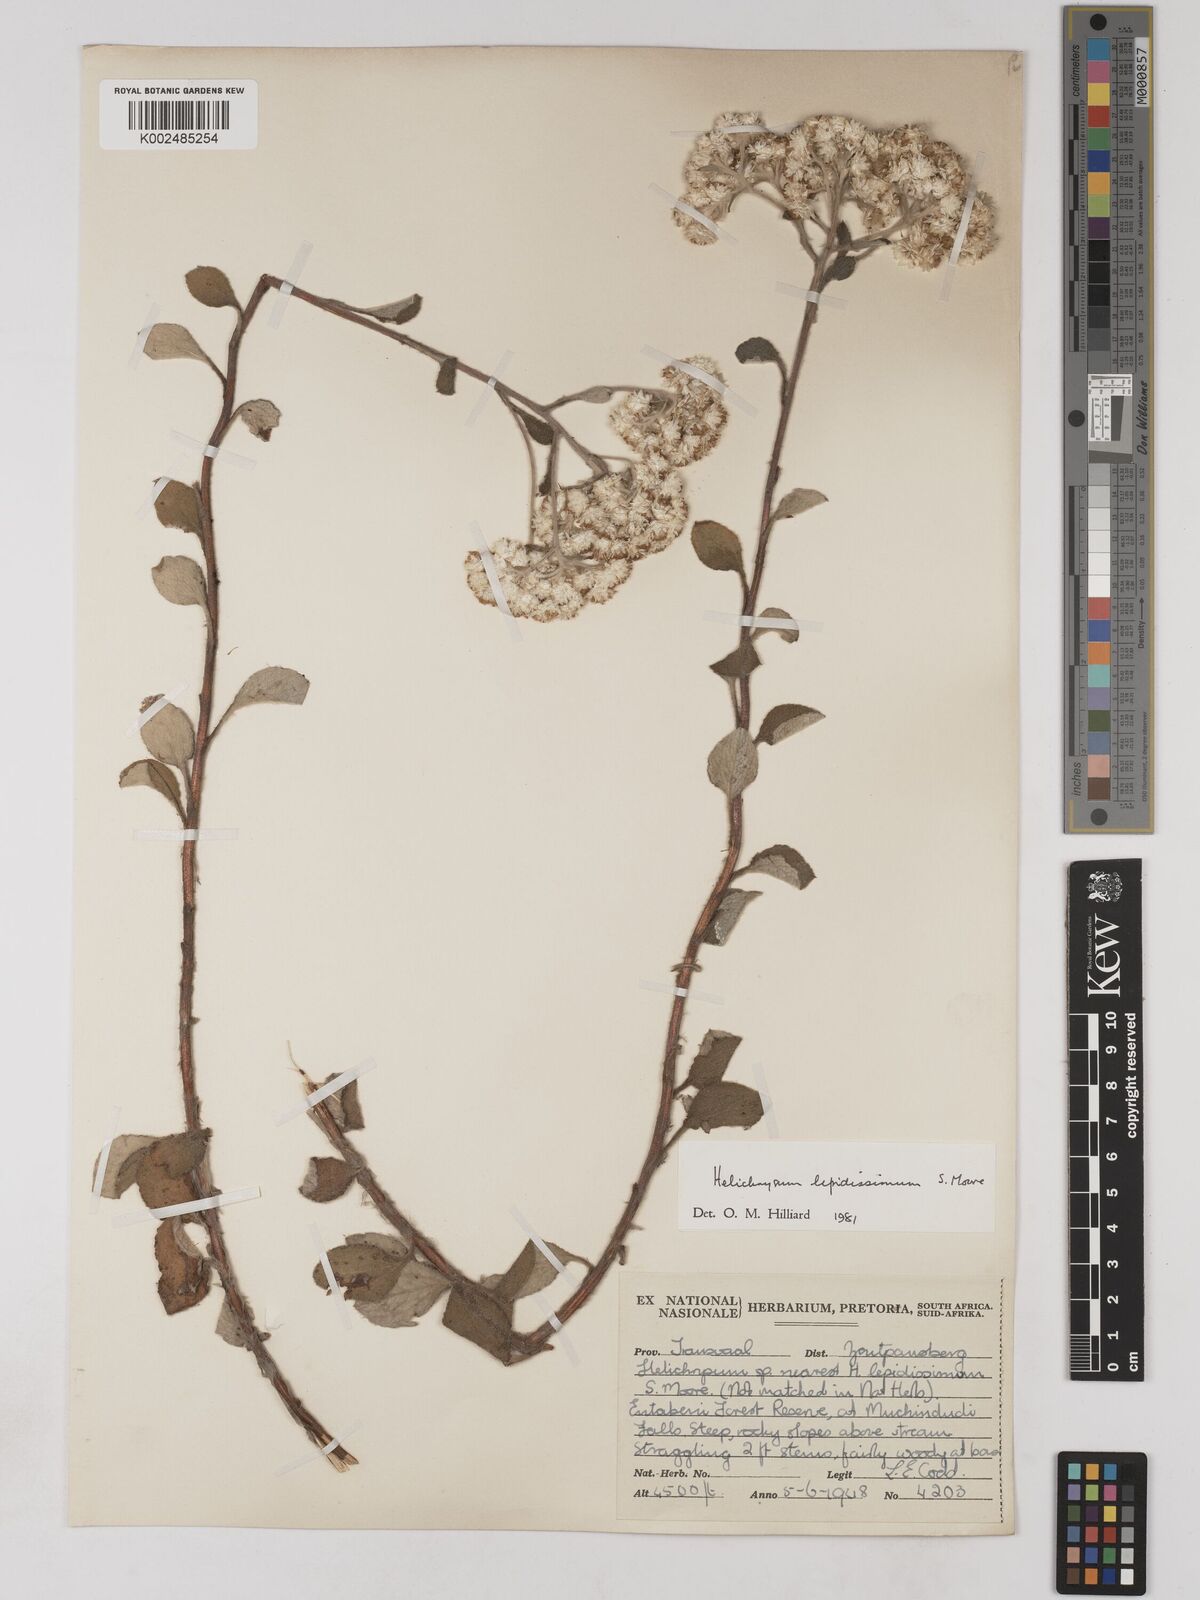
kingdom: Plantae
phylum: Tracheophyta
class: Magnoliopsida
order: Asterales
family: Asteraceae
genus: Helichrysum
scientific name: Helichrysum lepidissimum
